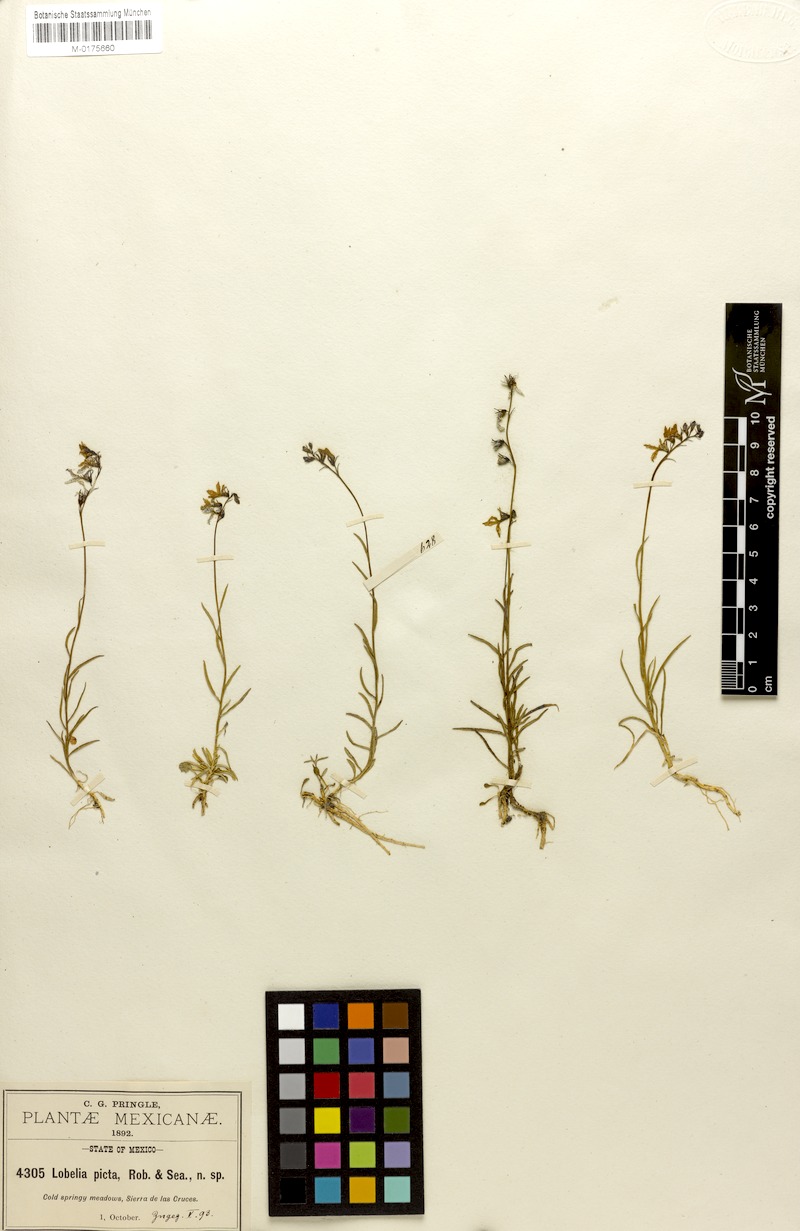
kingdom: Plantae
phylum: Tracheophyta
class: Magnoliopsida
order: Asterales
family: Campanulaceae
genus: Lobelia
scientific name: Lobelia irasuensis
